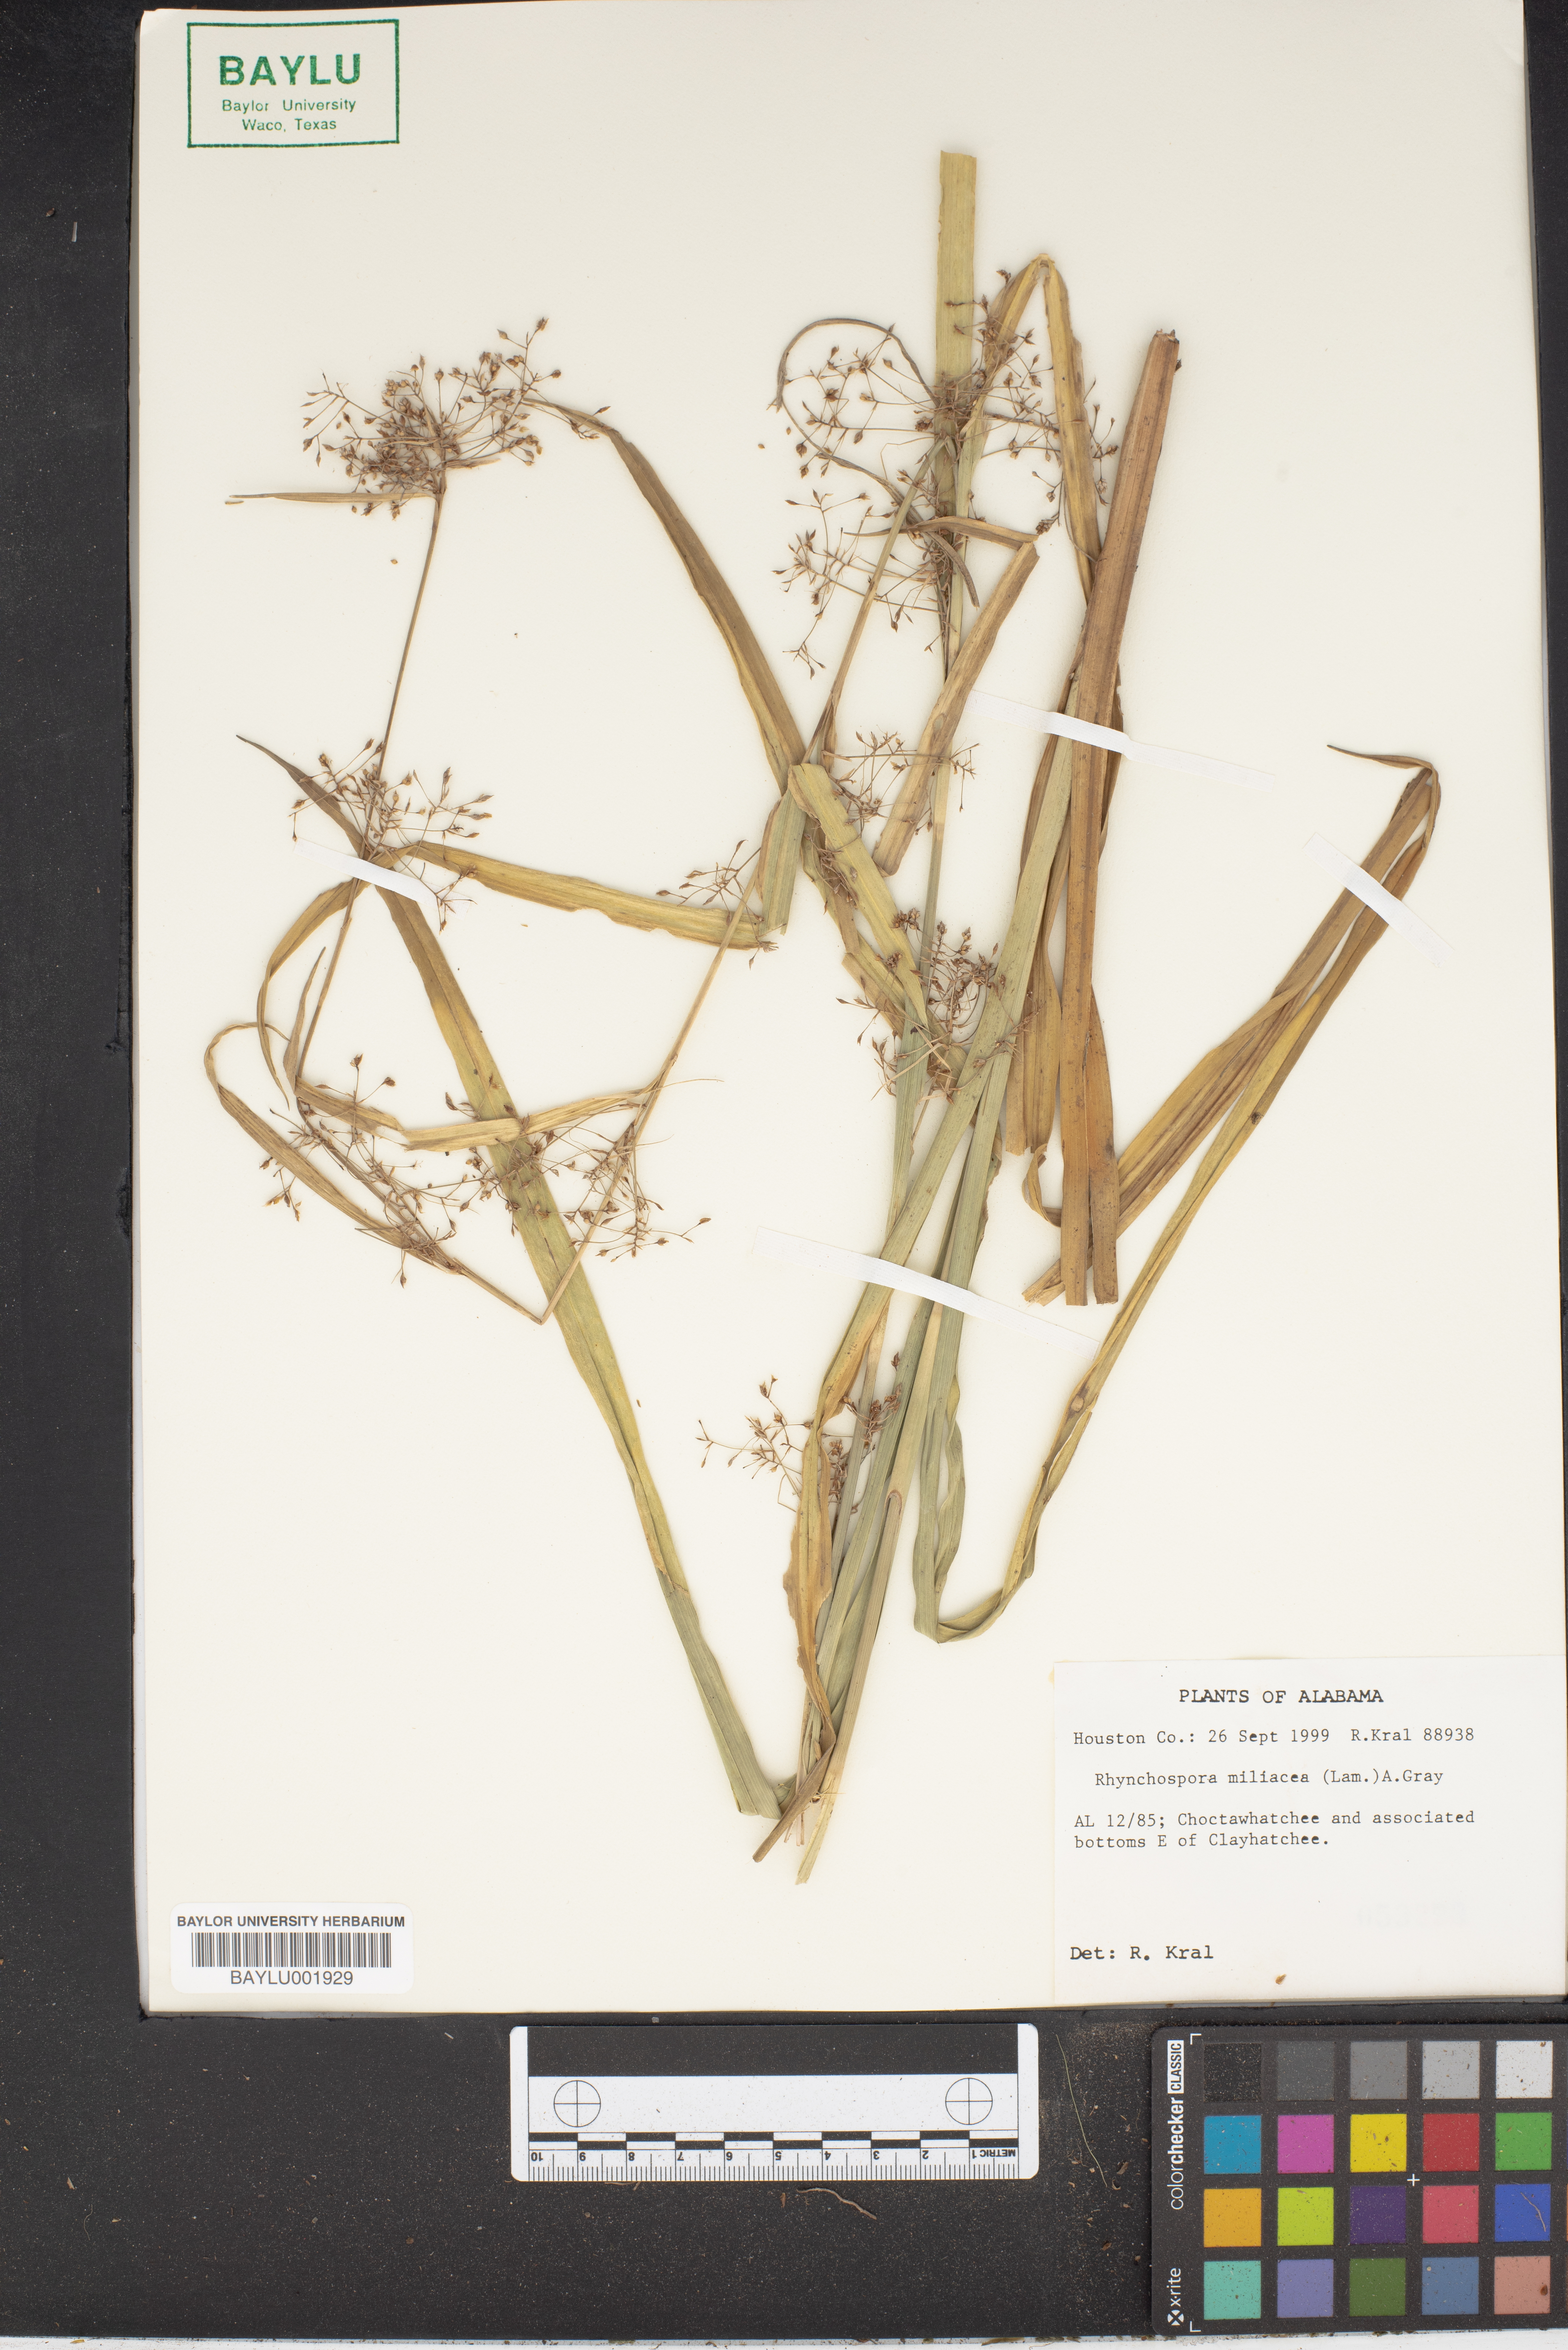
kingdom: Plantae
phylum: Tracheophyta
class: Liliopsida
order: Poales
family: Cyperaceae
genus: Rhynchospora
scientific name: Rhynchospora miliacea
